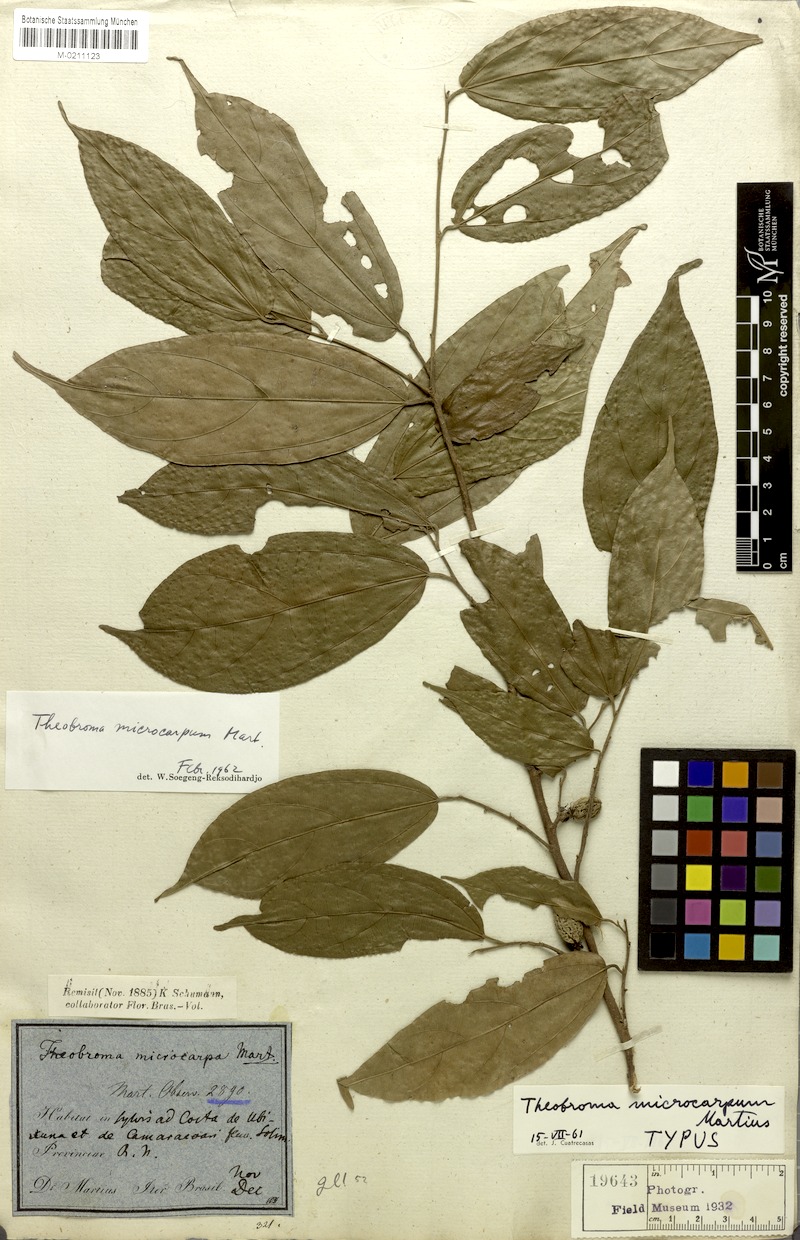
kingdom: Plantae
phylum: Tracheophyta
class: Magnoliopsida
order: Malvales
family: Malvaceae
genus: Theobroma
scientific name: Theobroma microcarpum
